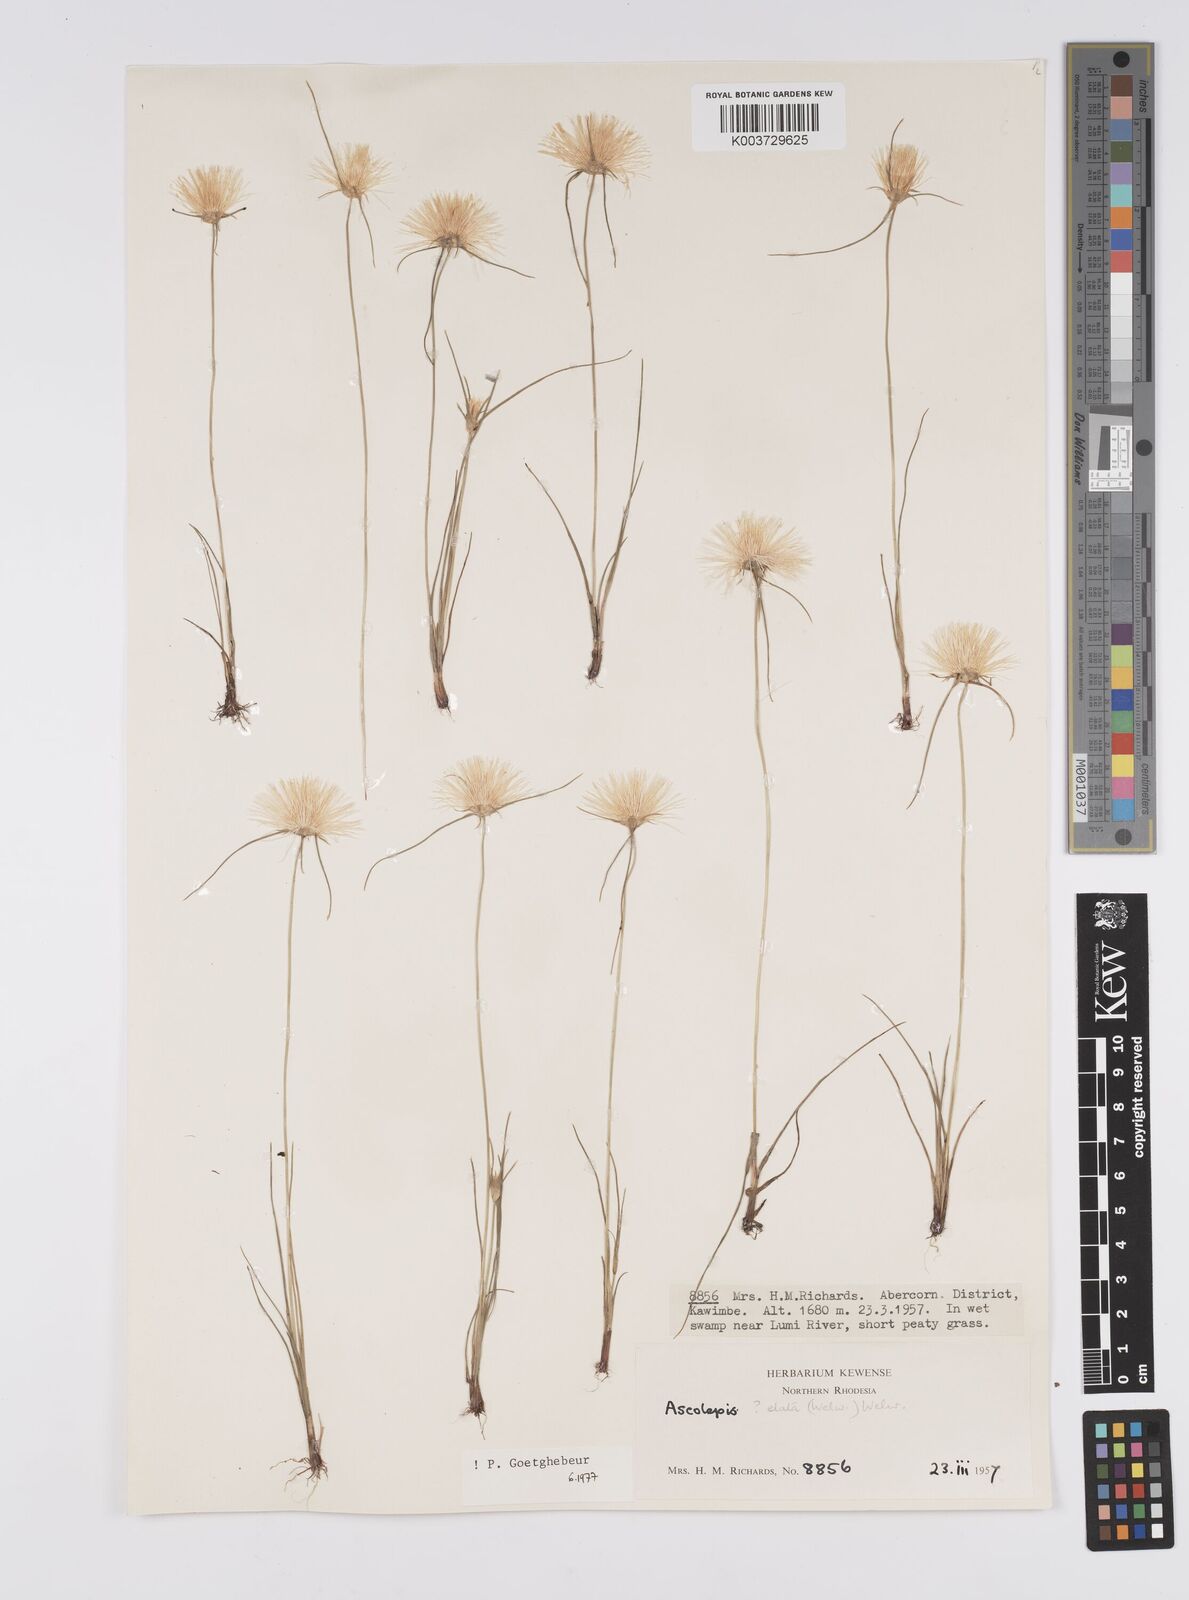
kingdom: Plantae
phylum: Tracheophyta
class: Liliopsida
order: Poales
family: Cyperaceae
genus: Cyperus
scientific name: Cyperus
